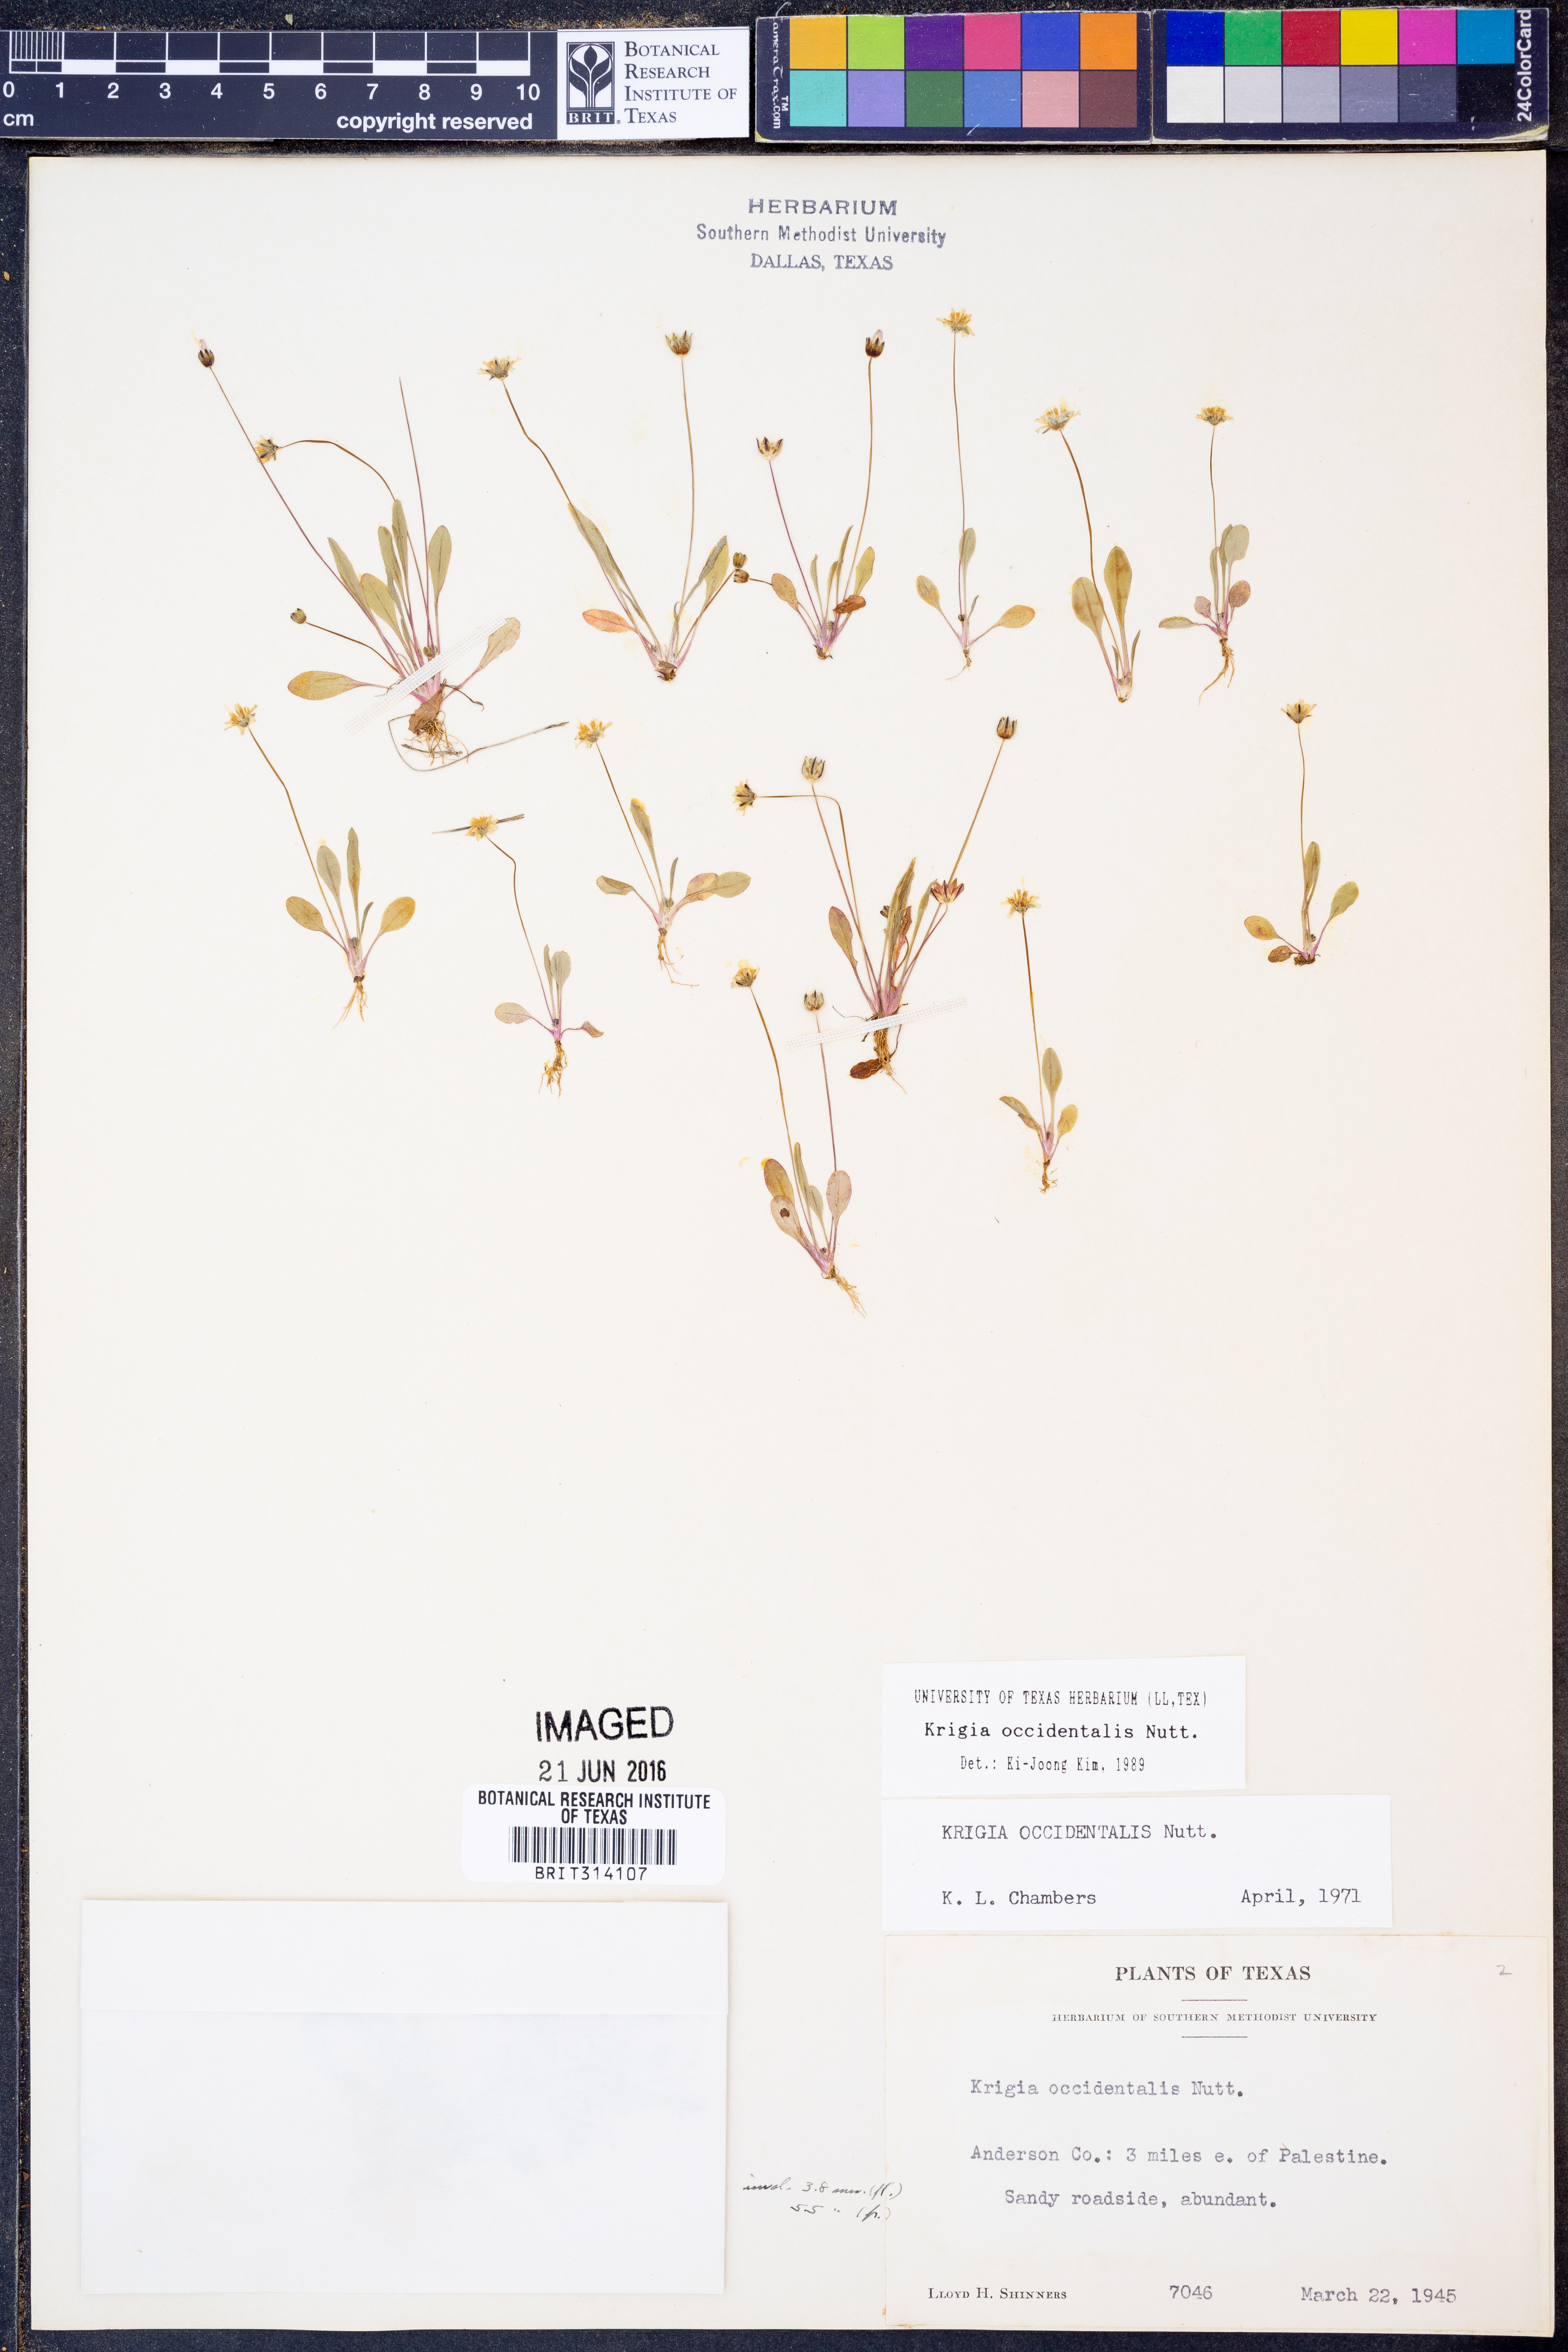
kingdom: Plantae
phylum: Tracheophyta
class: Magnoliopsida
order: Asterales
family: Asteraceae
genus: Krigia
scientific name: Krigia occidentalis
